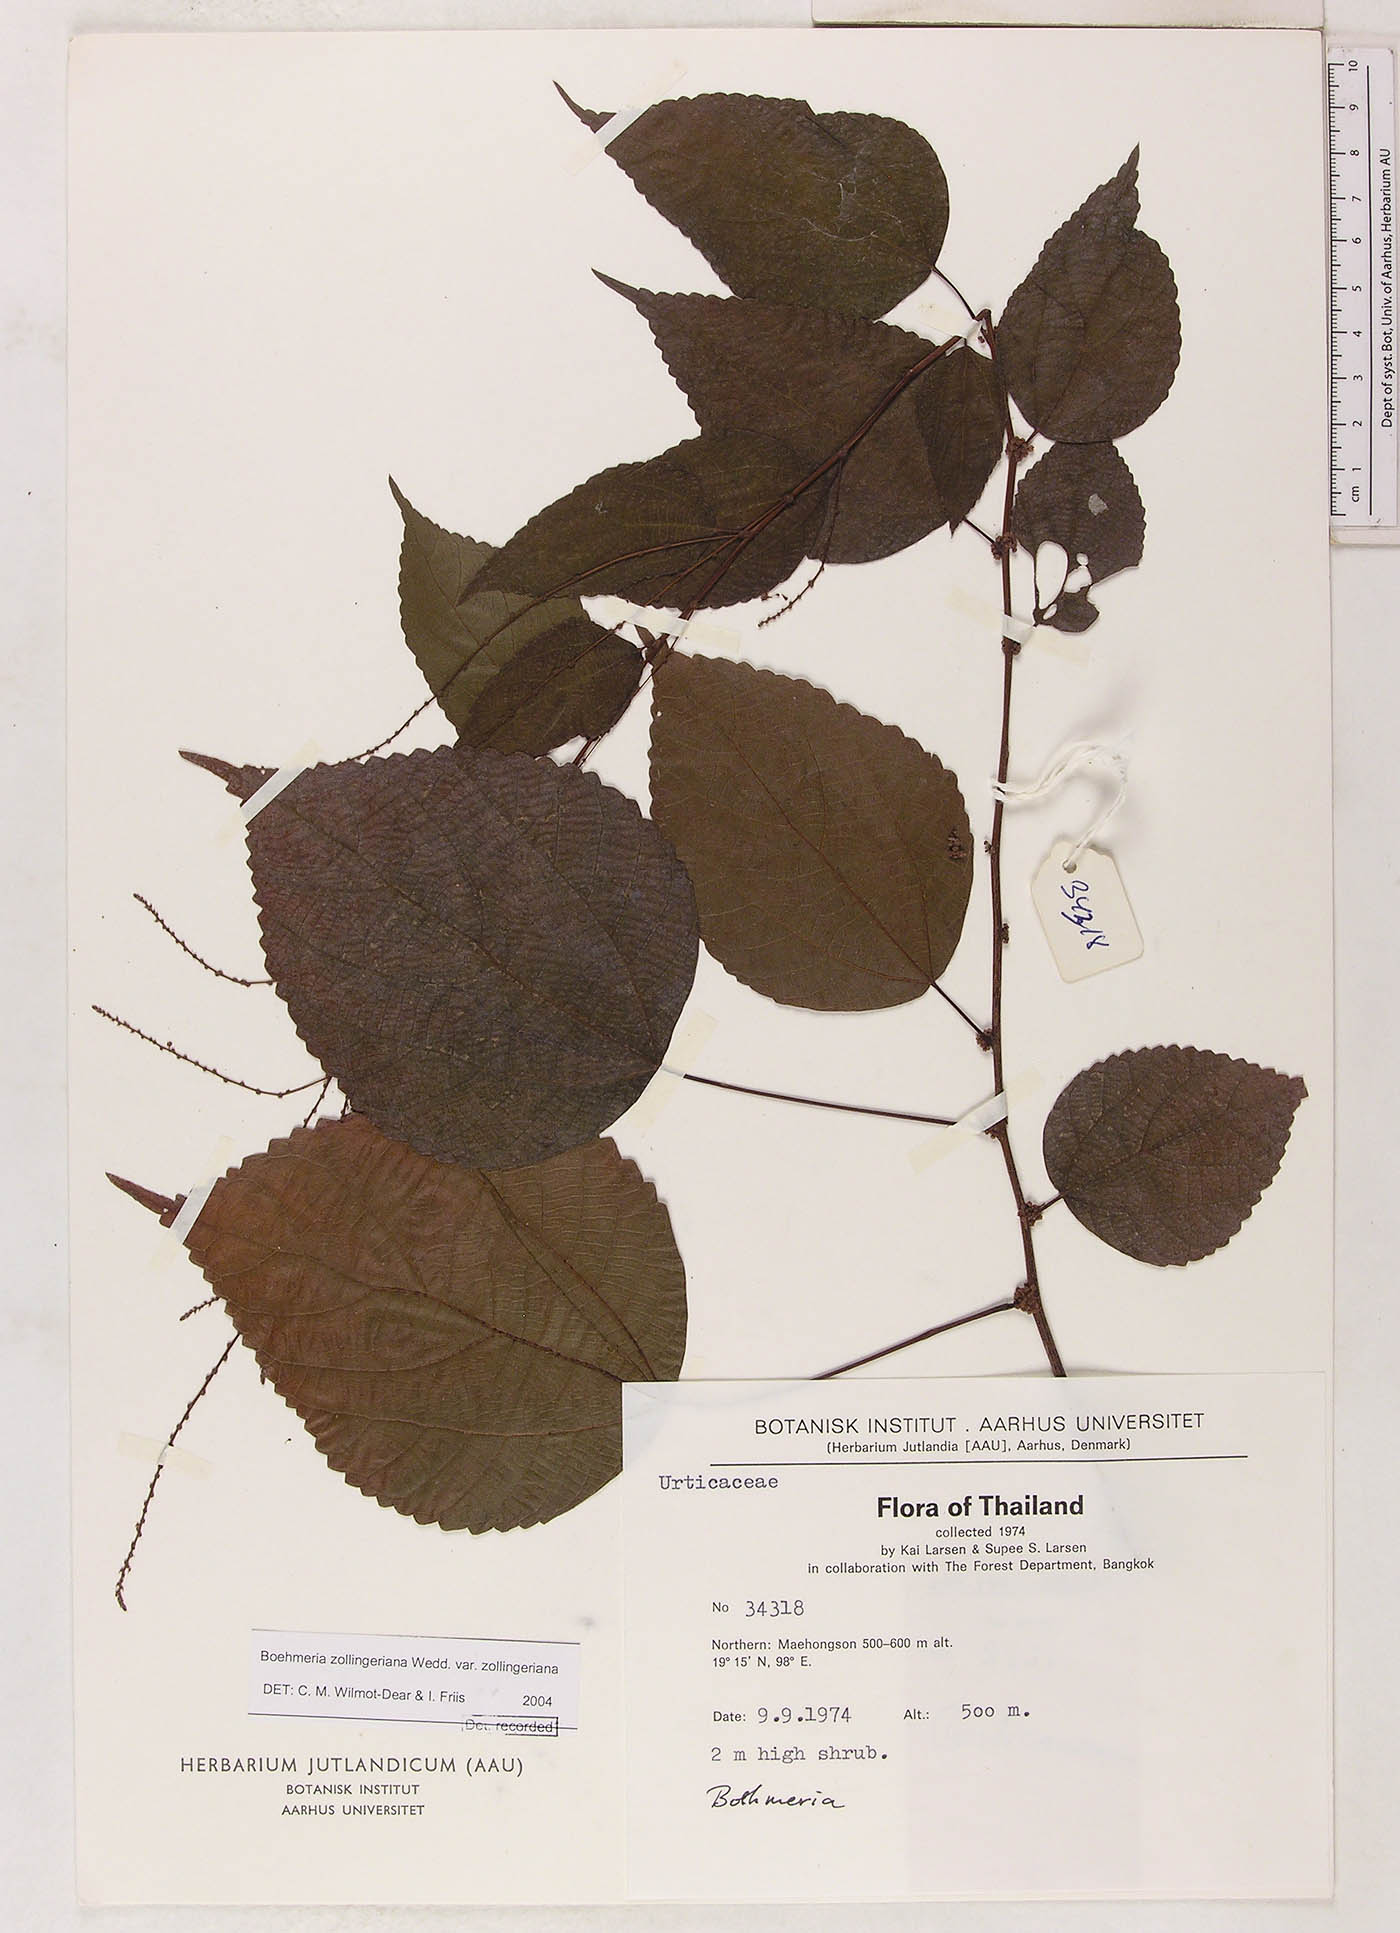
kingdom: Plantae
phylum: Tracheophyta
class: Magnoliopsida
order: Rosales
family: Urticaceae
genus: Boehmeria
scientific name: Boehmeria zollingeriana
